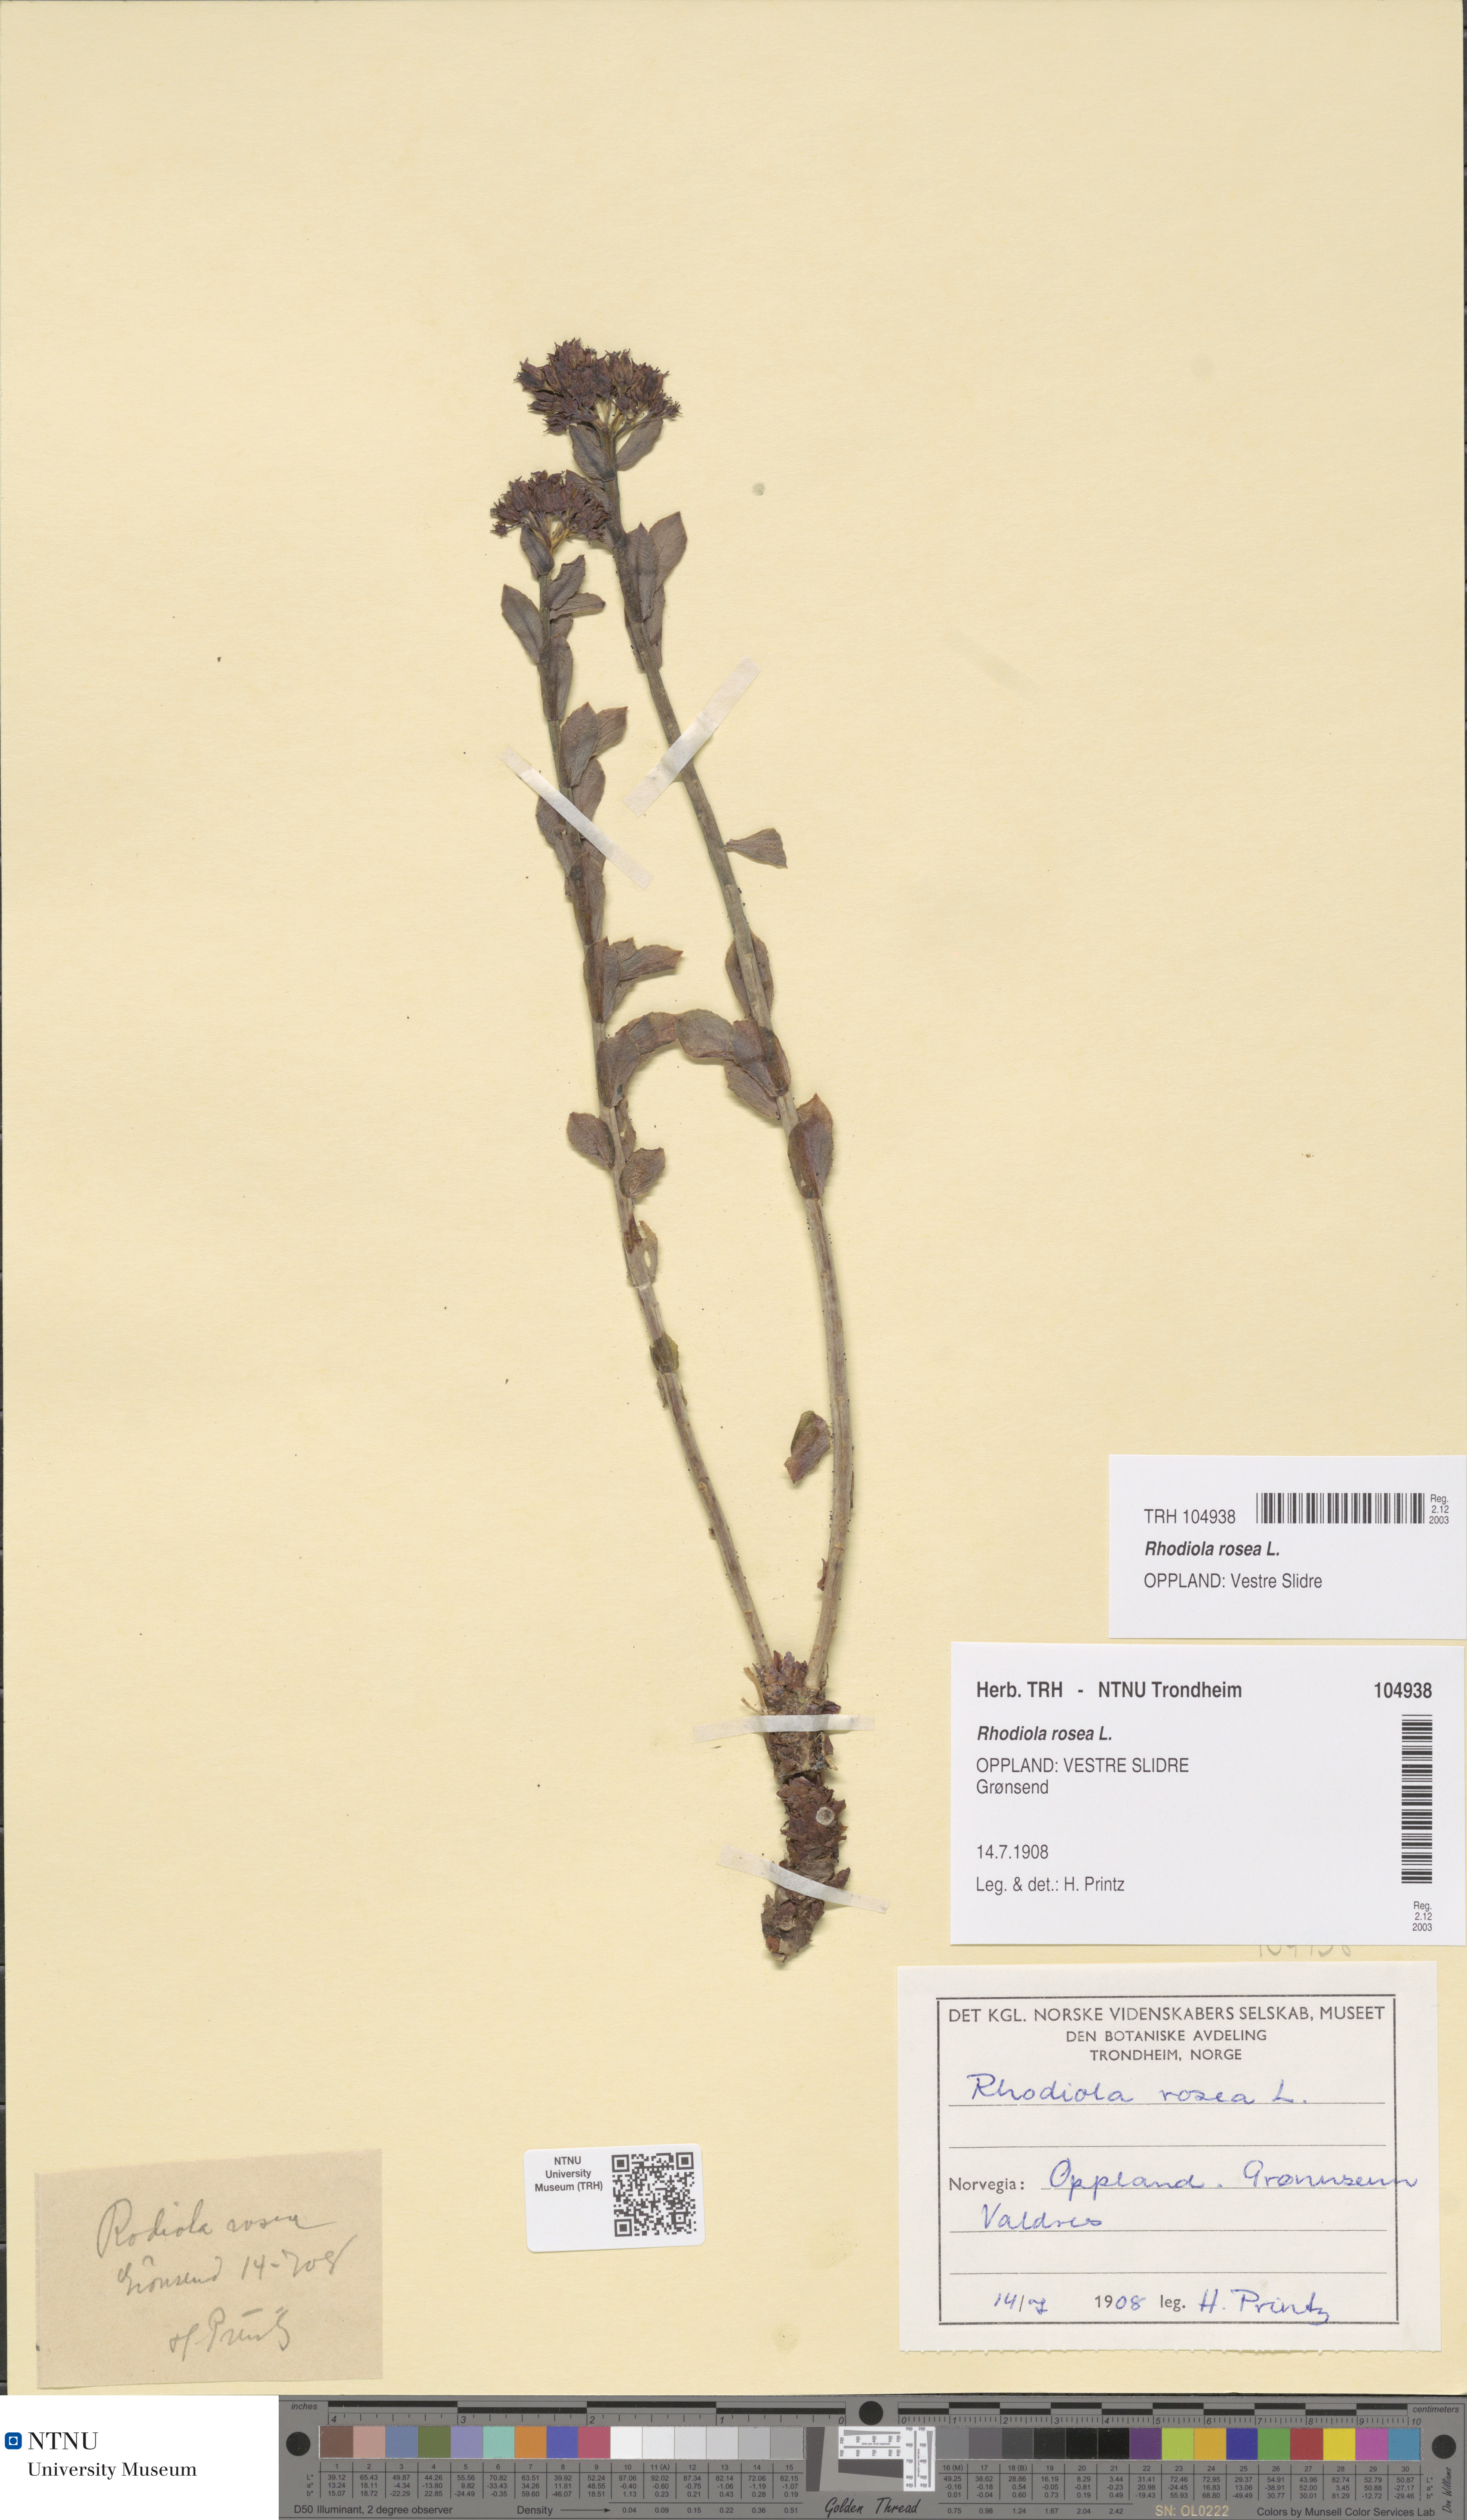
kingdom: Plantae
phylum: Tracheophyta
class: Magnoliopsida
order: Saxifragales
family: Crassulaceae
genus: Rhodiola
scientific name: Rhodiola rosea
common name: Roseroot
